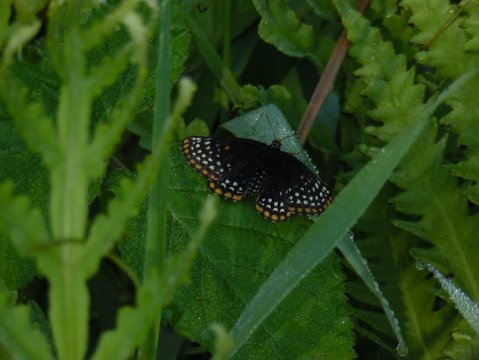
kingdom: Animalia
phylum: Arthropoda
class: Insecta
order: Lepidoptera
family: Nymphalidae
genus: Euphydryas
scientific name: Euphydryas phaeton
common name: Baltimore Checkerspot
